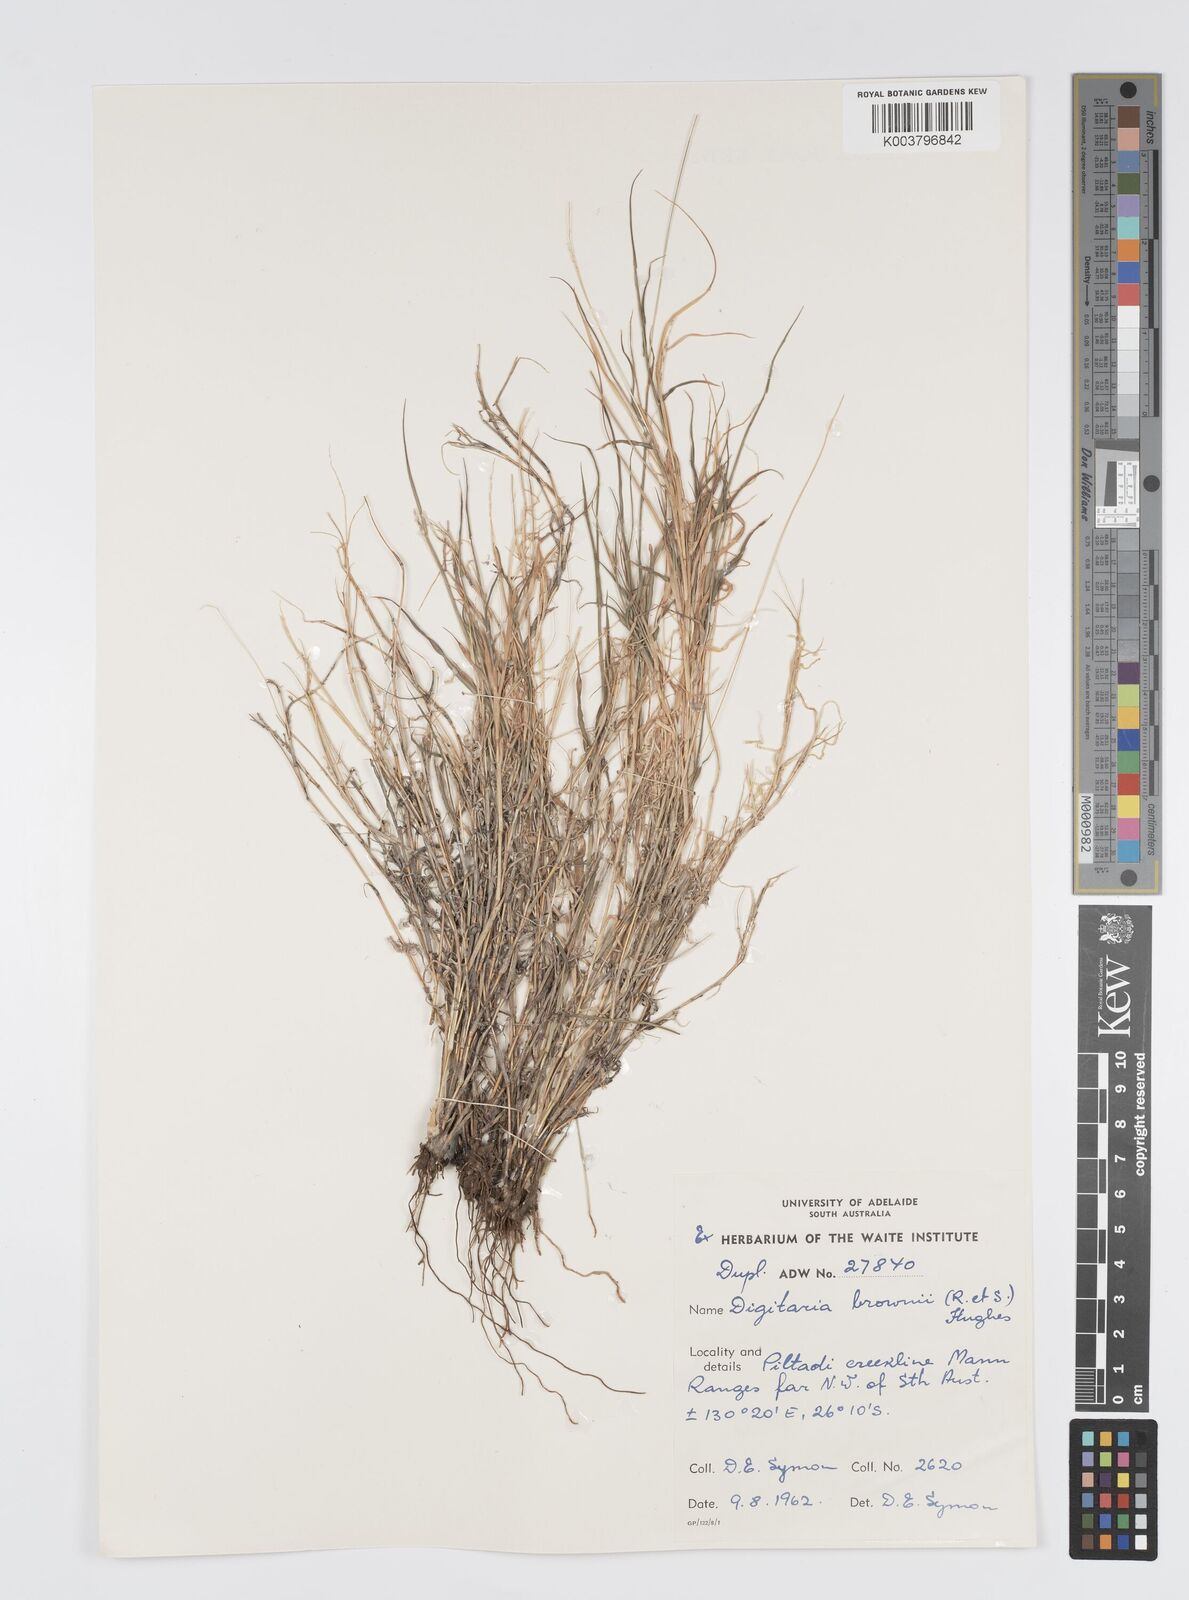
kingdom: Plantae
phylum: Tracheophyta
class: Liliopsida
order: Poales
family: Poaceae
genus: Digitaria
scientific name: Digitaria brownii
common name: Cotton grass
